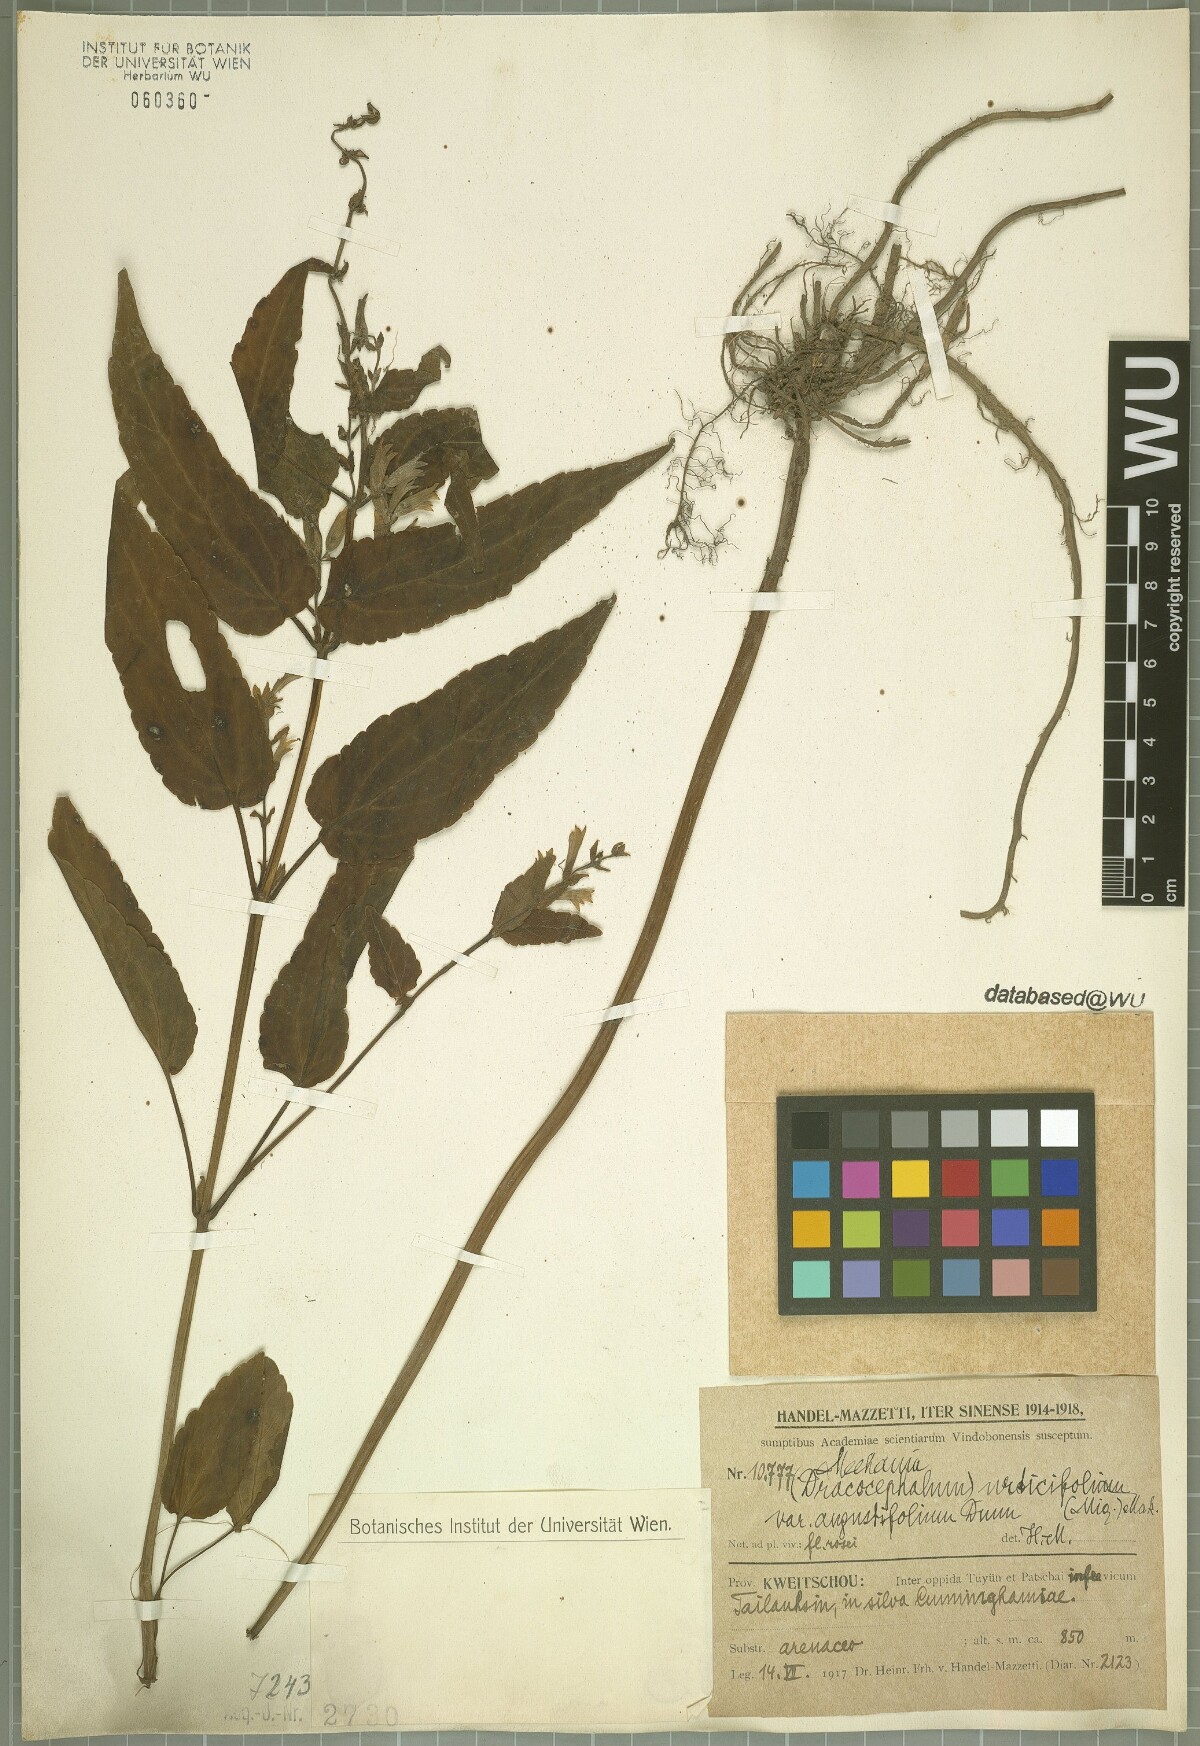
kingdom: Plantae
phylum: Tracheophyta
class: Magnoliopsida
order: Lamiales
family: Lamiaceae
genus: Meehania
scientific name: Meehania urticifolia
